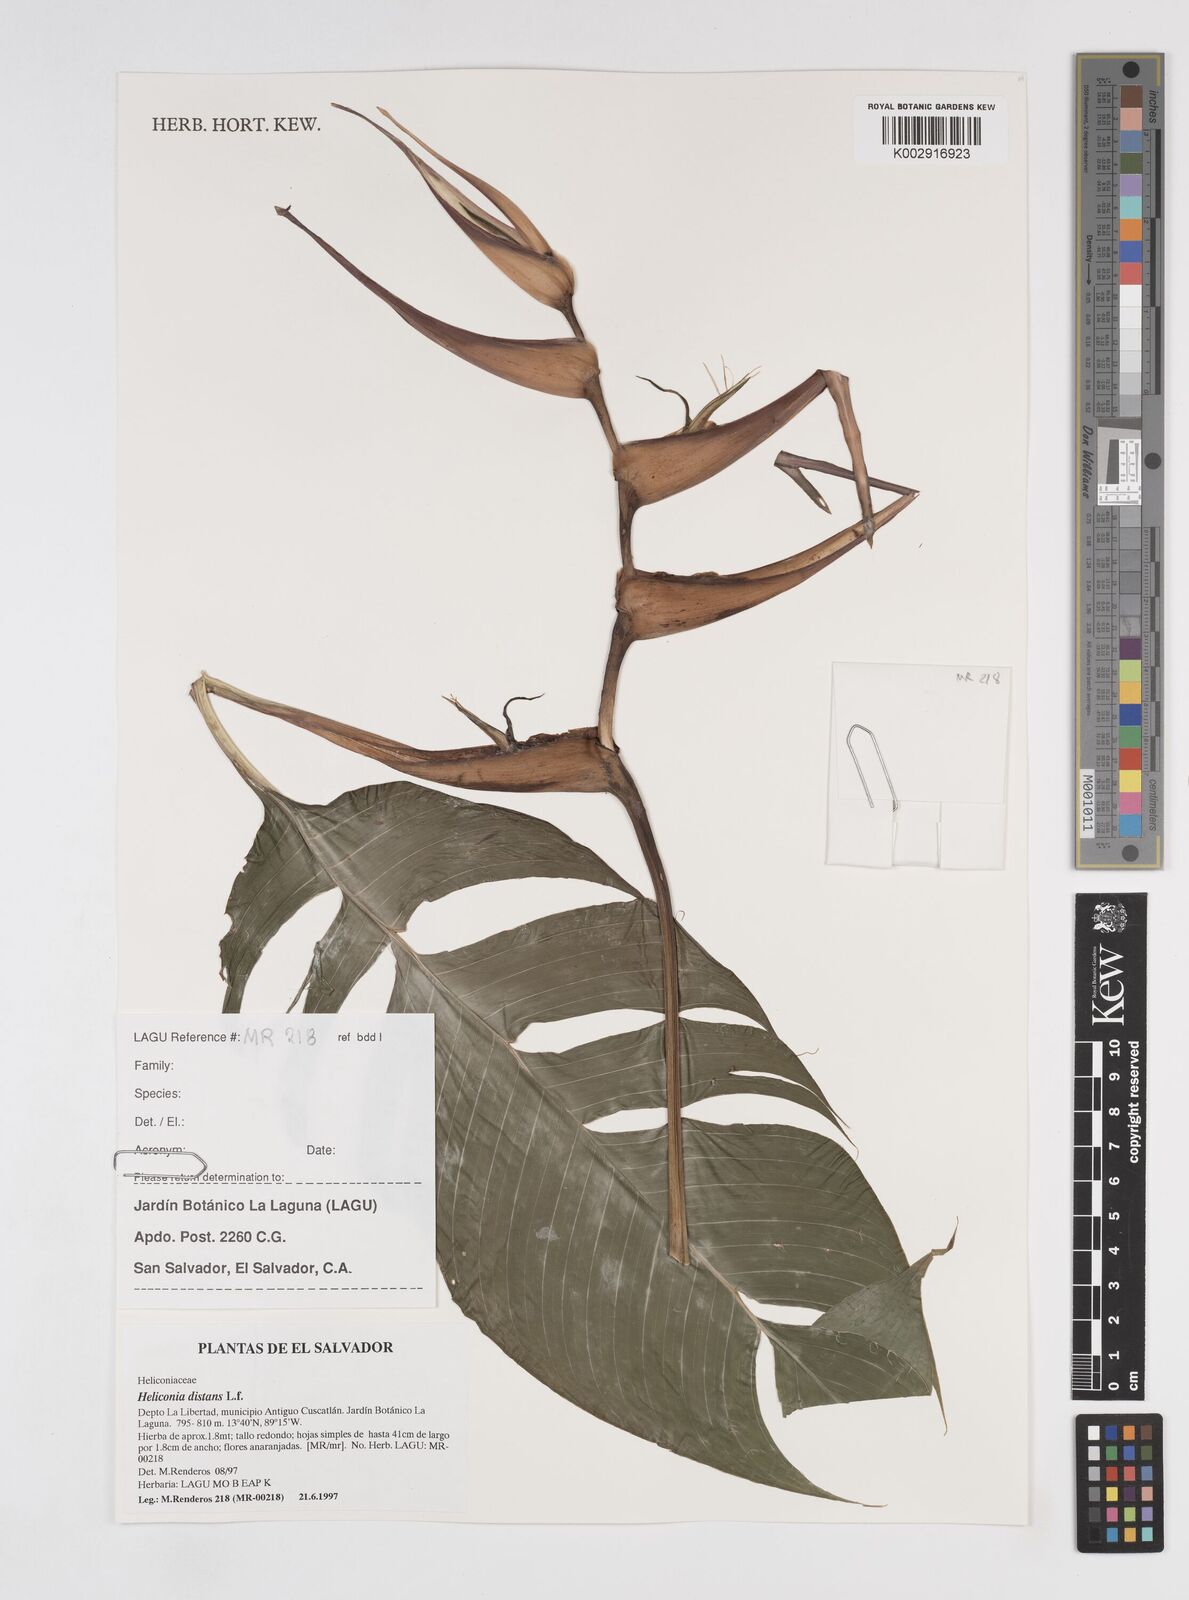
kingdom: Plantae
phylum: Tracheophyta
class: Liliopsida
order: Zingiberales
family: Heliconiaceae
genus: Heliconia
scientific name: Heliconia bihai
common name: Macaw flower
